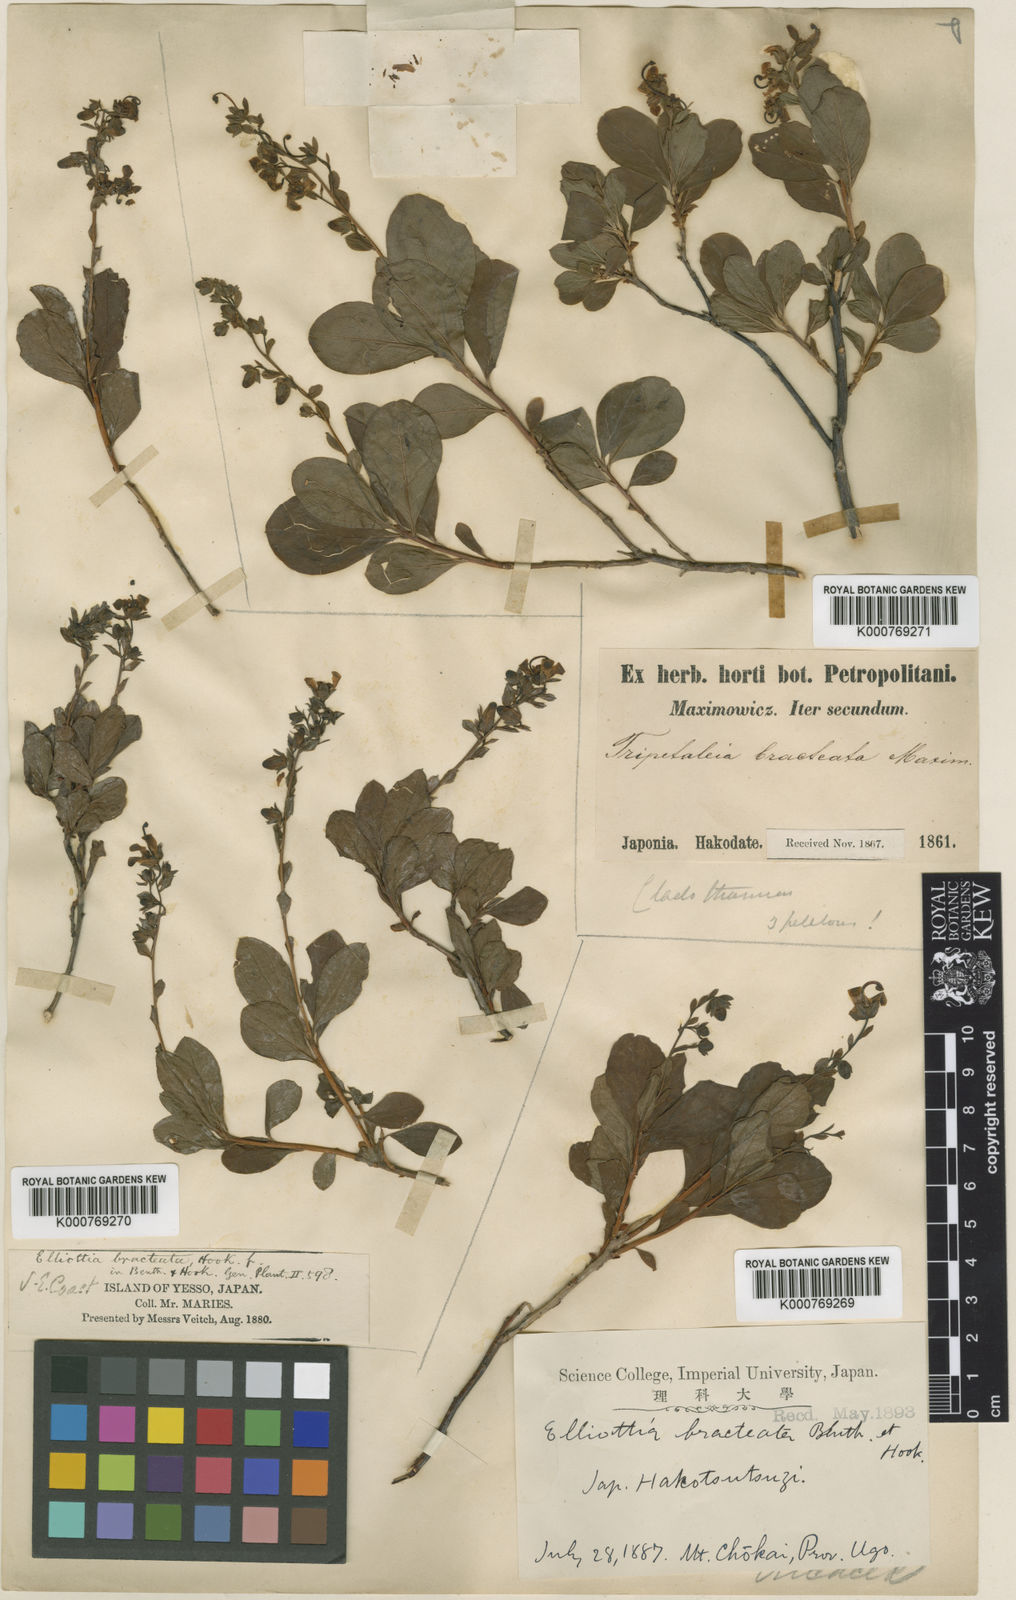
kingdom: Plantae
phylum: Tracheophyta
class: Magnoliopsida
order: Ericales
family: Ericaceae
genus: Elliottia
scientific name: Elliottia bracteata
